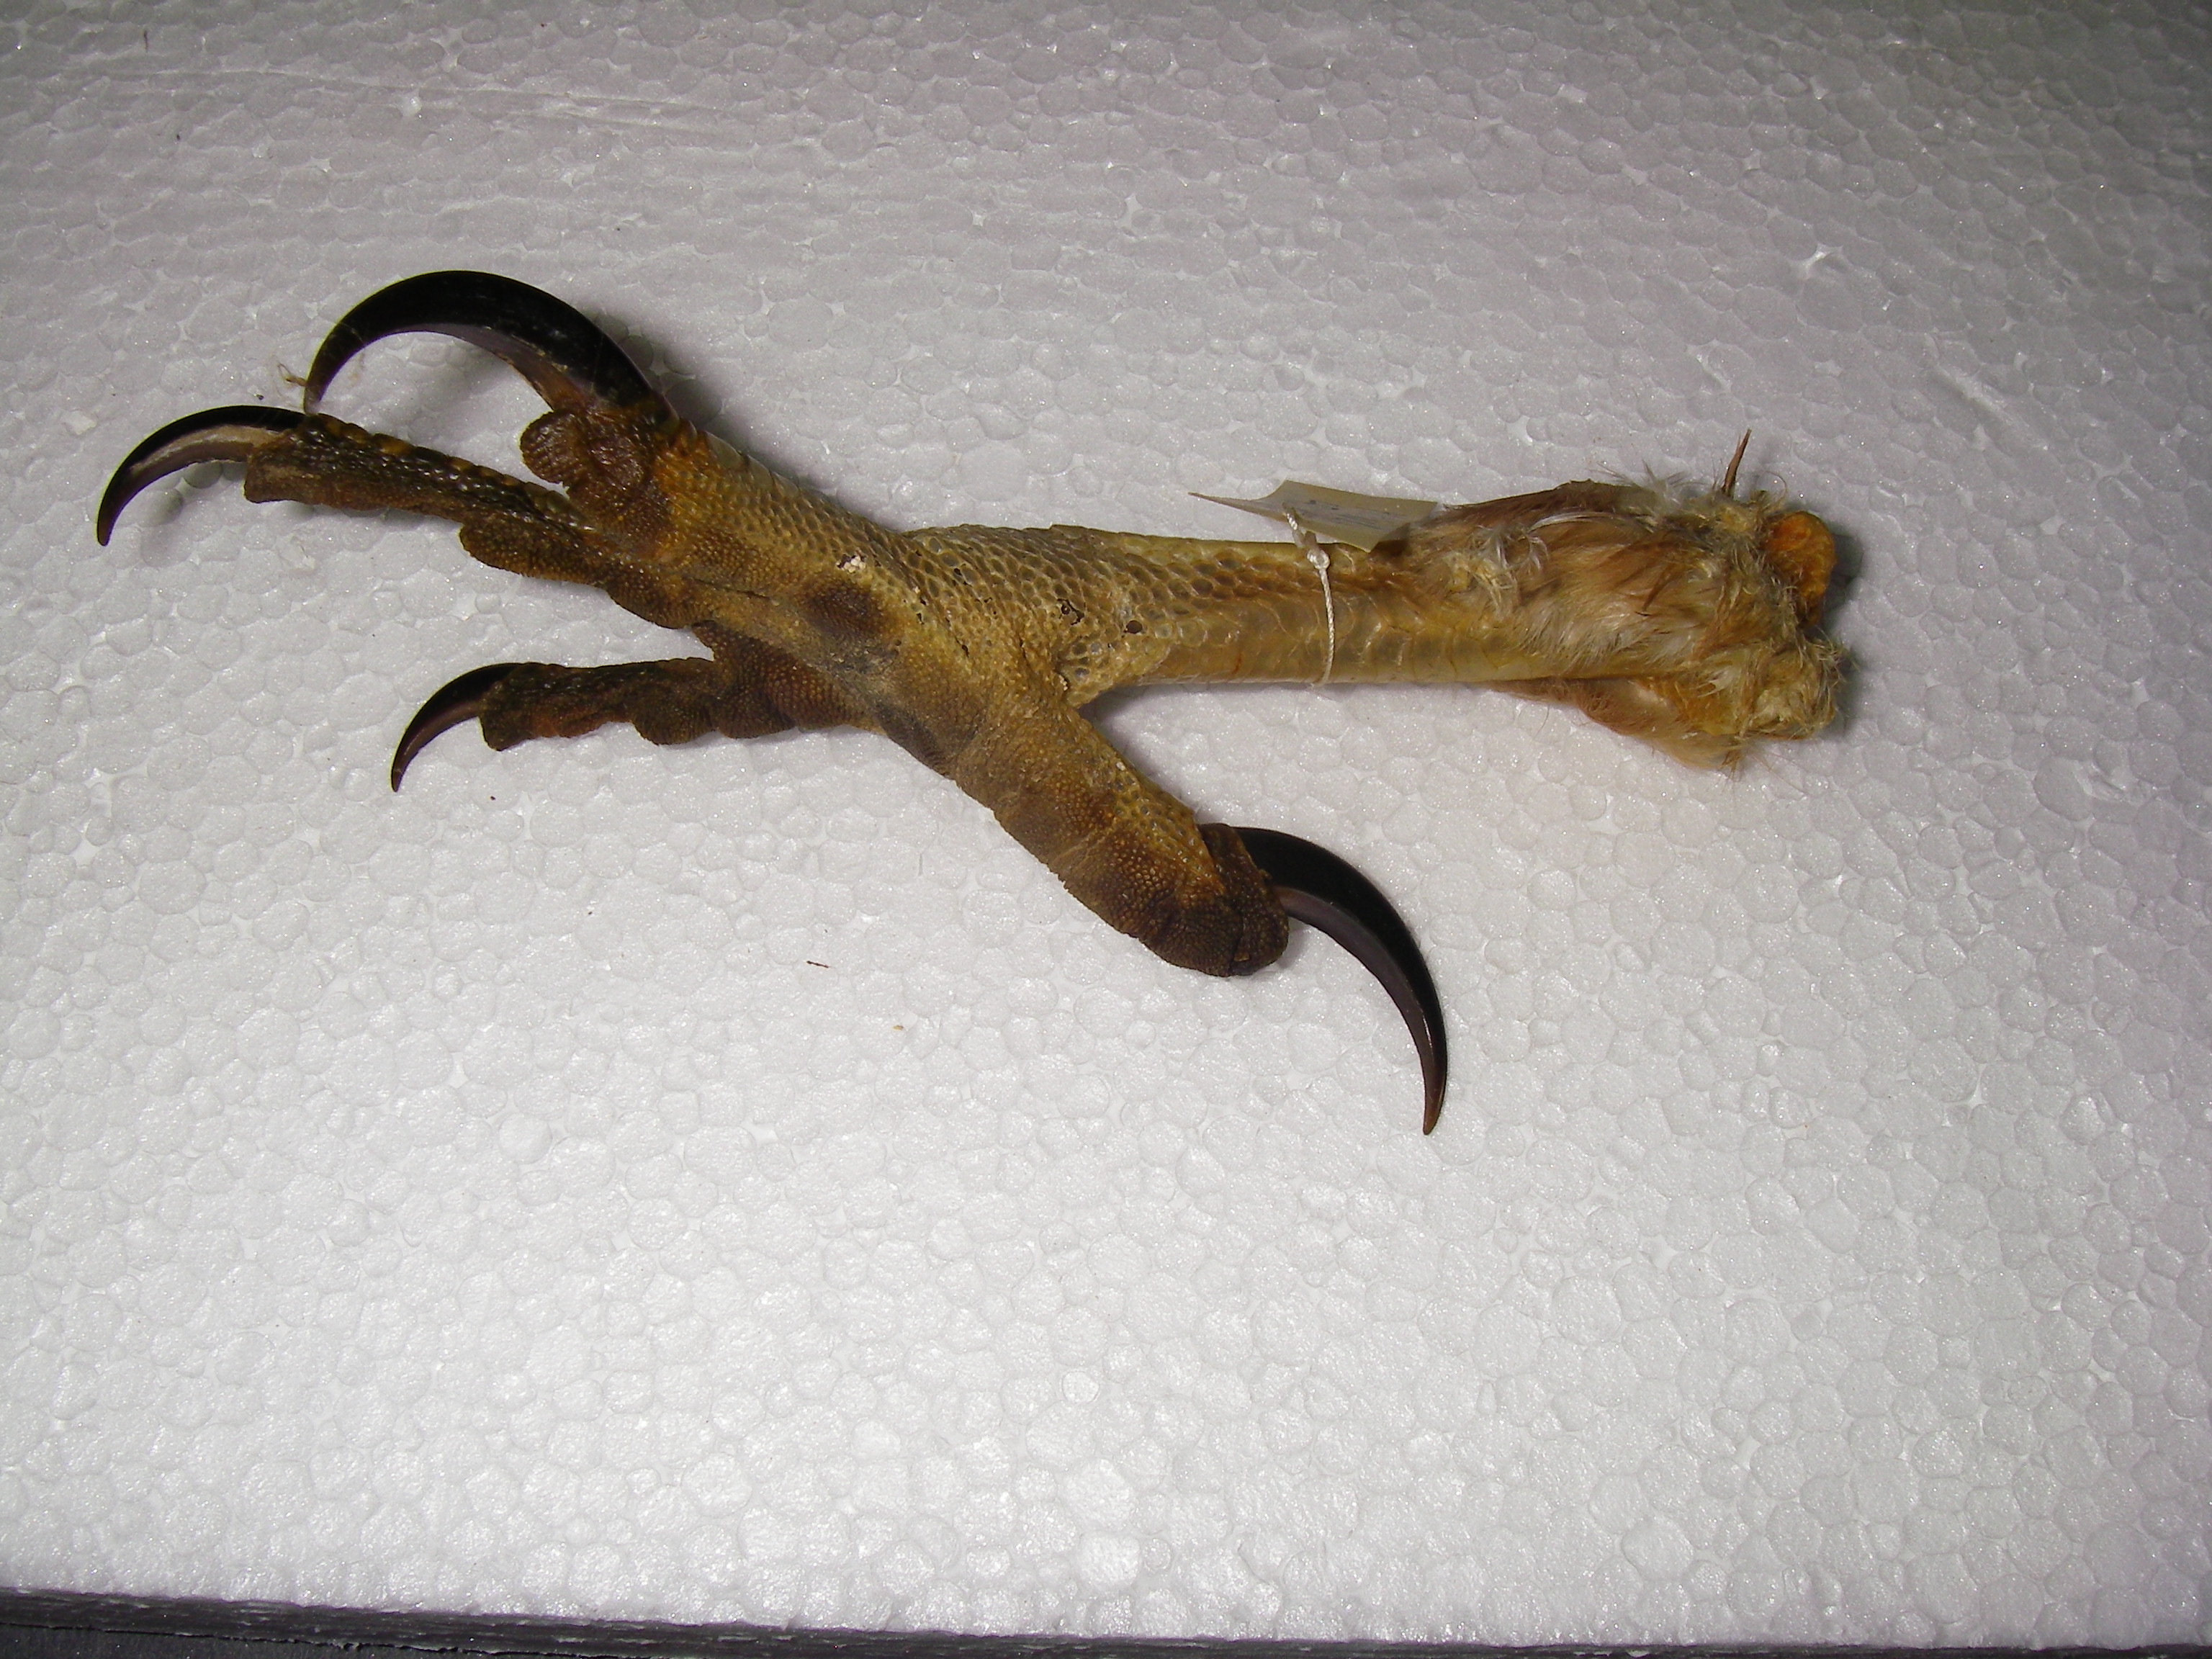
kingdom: Animalia
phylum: Chordata
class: Aves
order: Accipitriformes
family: Accipitridae
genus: Accipiter
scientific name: Accipiter gentilis
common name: Northern goshawk
